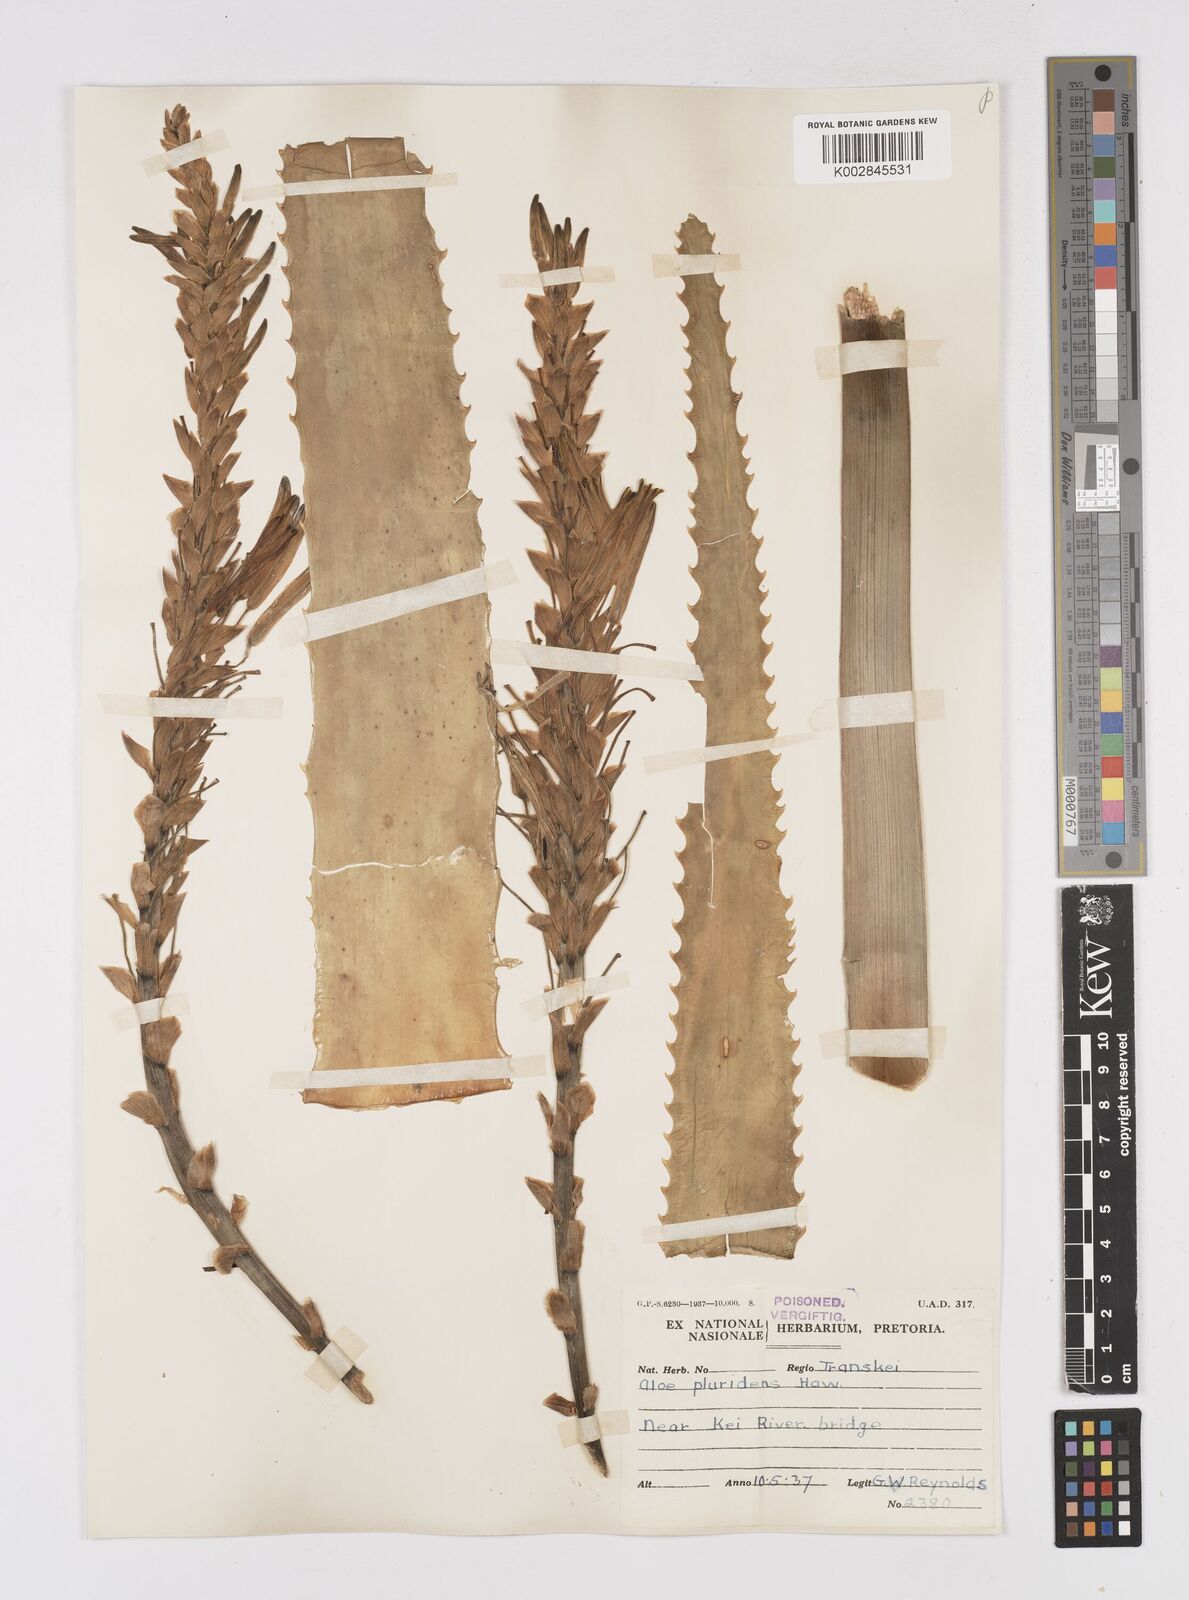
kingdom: Plantae
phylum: Tracheophyta
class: Liliopsida
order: Asparagales
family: Asphodelaceae
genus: Aloe
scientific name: Aloe pluridens
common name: French aloe
